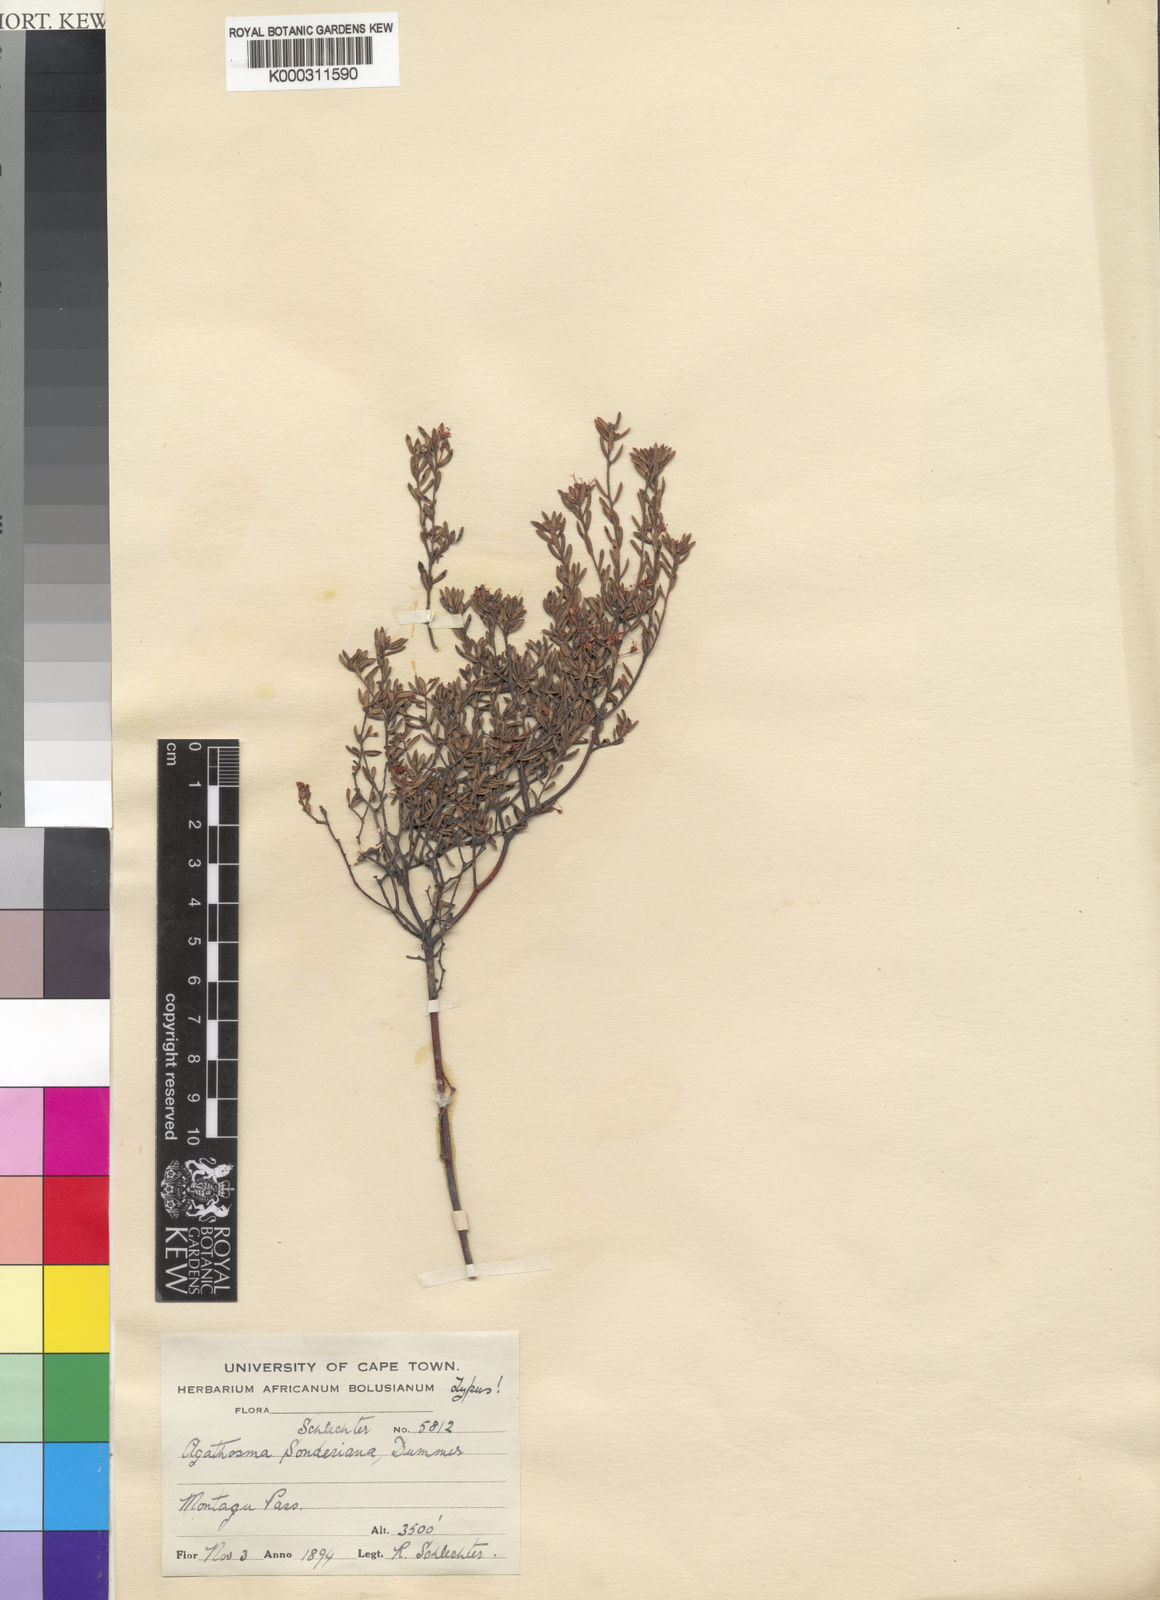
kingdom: Plantae
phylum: Tracheophyta
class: Magnoliopsida
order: Sapindales
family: Rutaceae
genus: Agathosma
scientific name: Agathosma mundii
